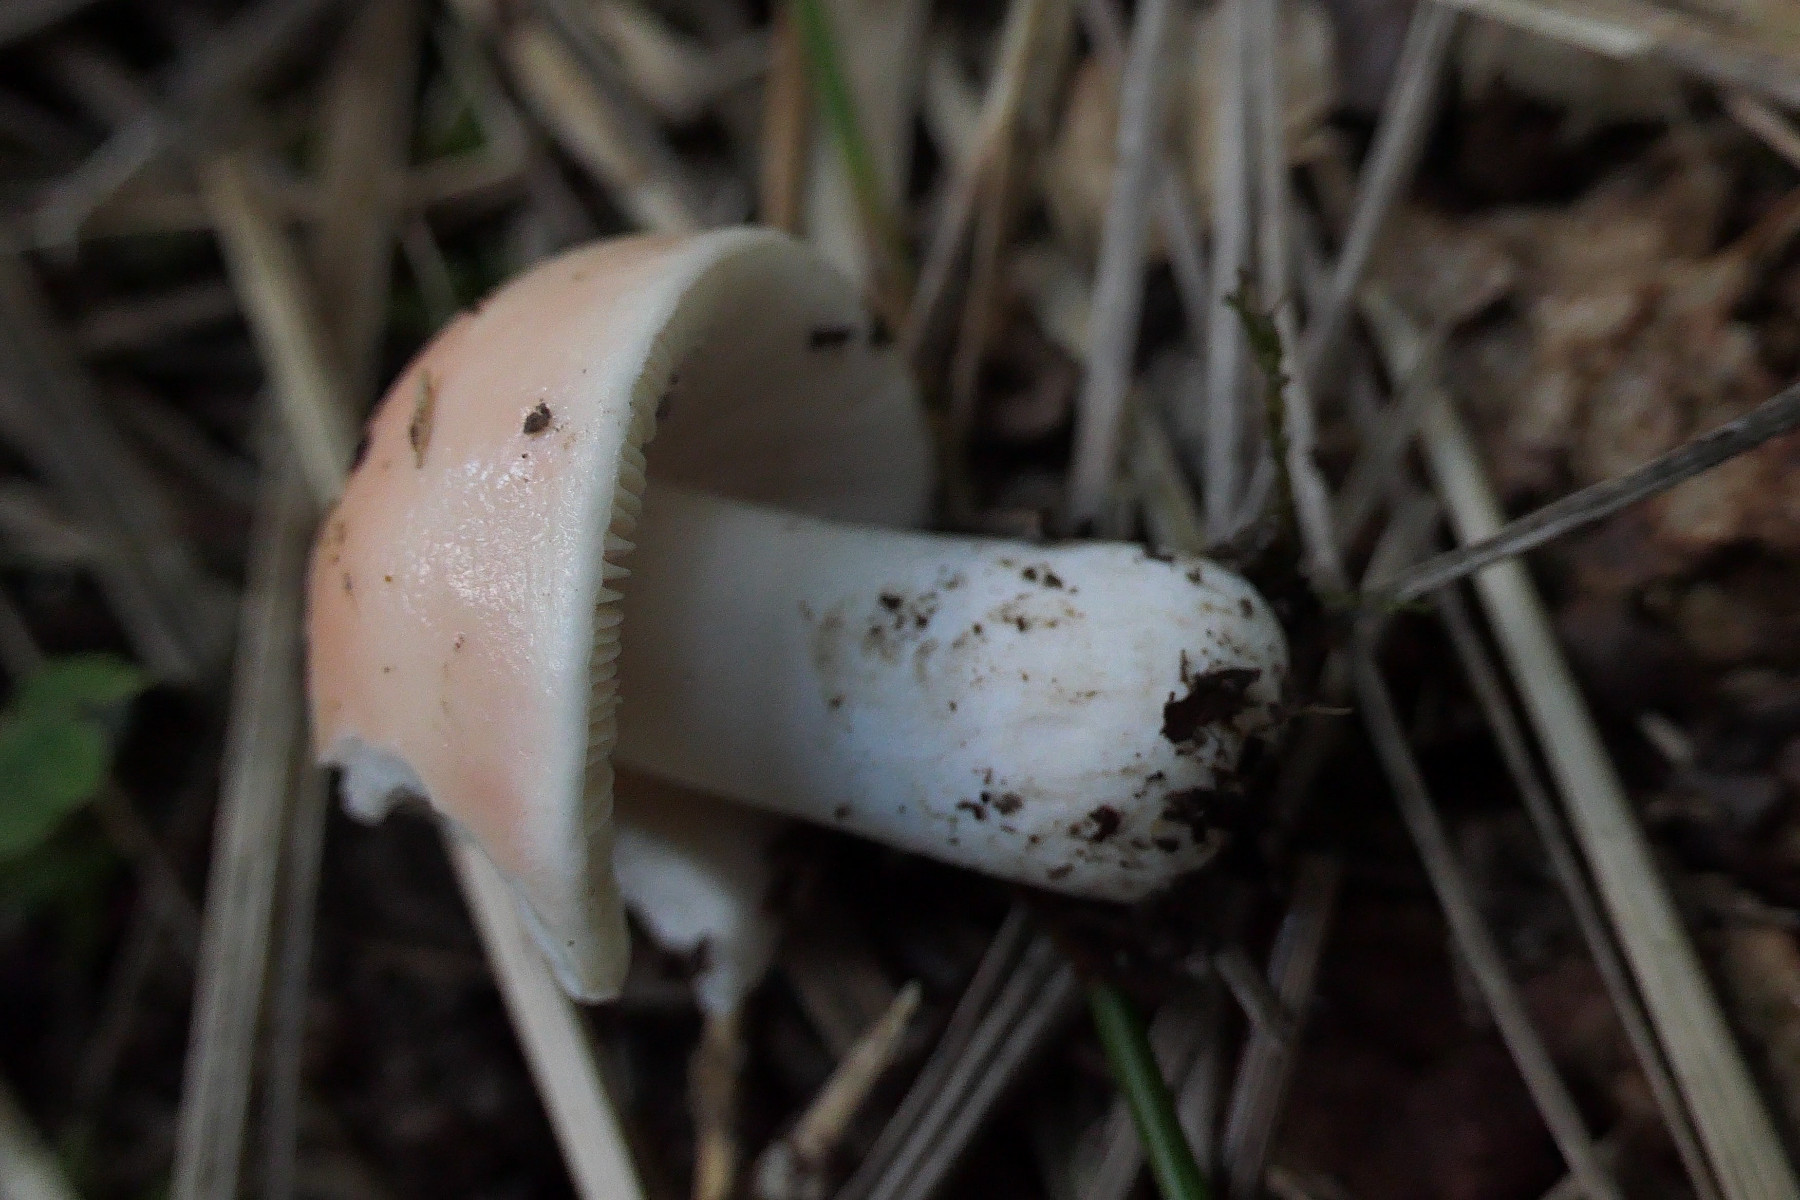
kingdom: Fungi
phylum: Basidiomycota
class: Agaricomycetes
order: Russulales
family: Russulaceae
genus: Russula
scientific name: Russula vesca
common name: spiselig skørhat
